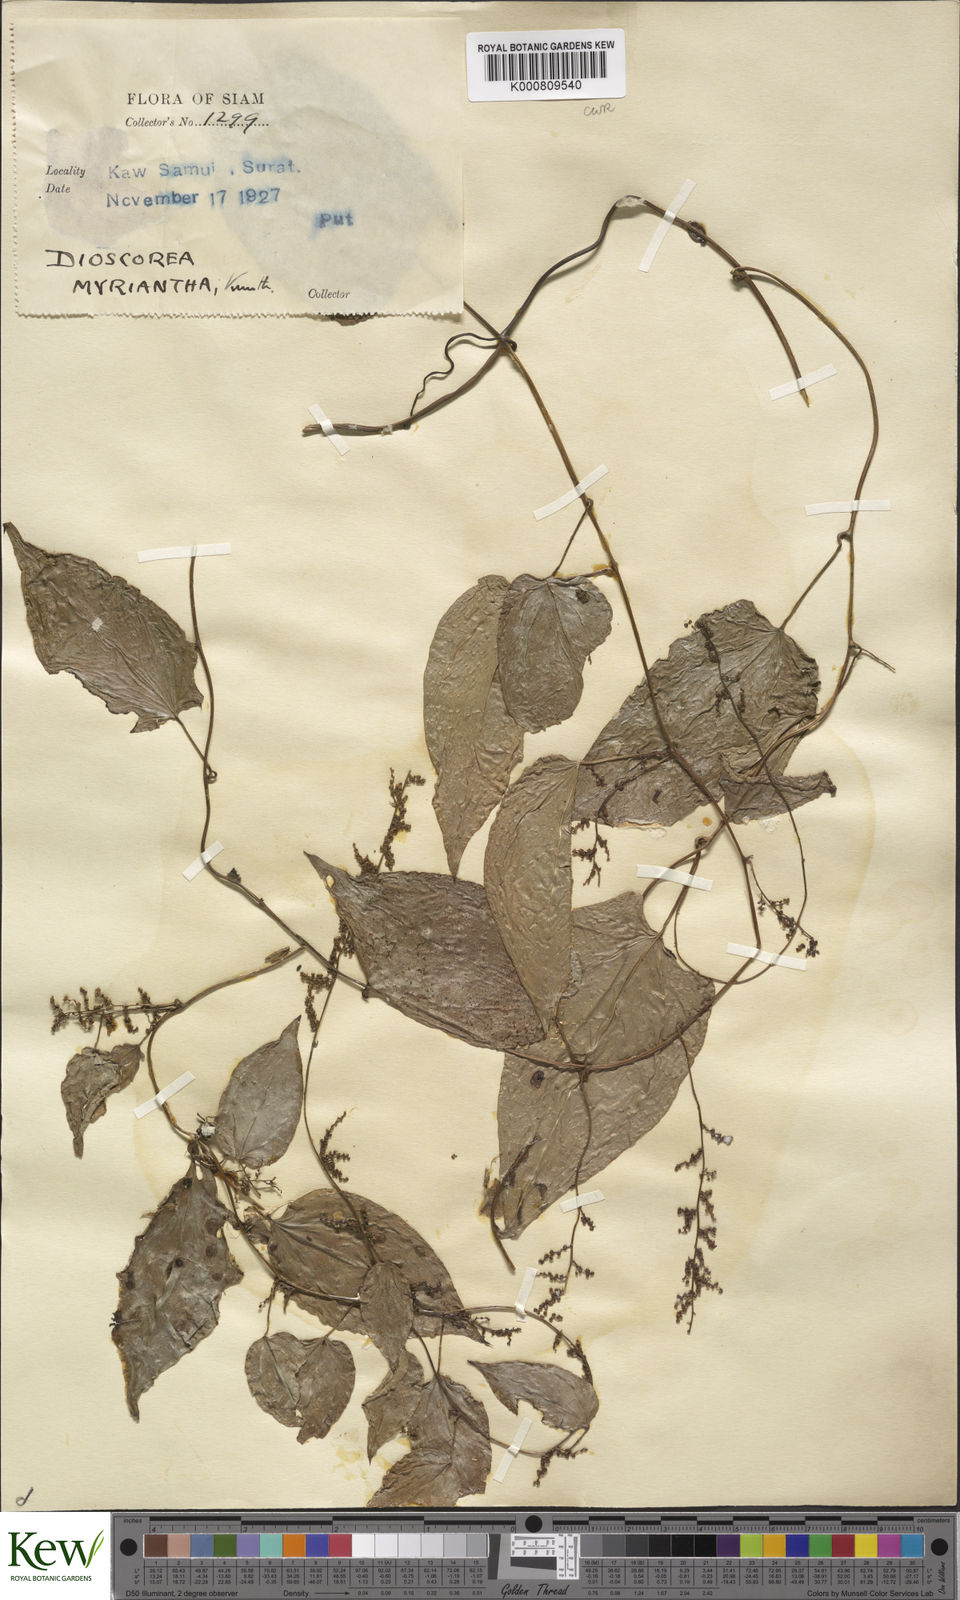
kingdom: Plantae
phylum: Tracheophyta
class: Liliopsida
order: Dioscoreales
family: Dioscoreaceae
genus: Dioscorea
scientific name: Dioscorea filiformis
